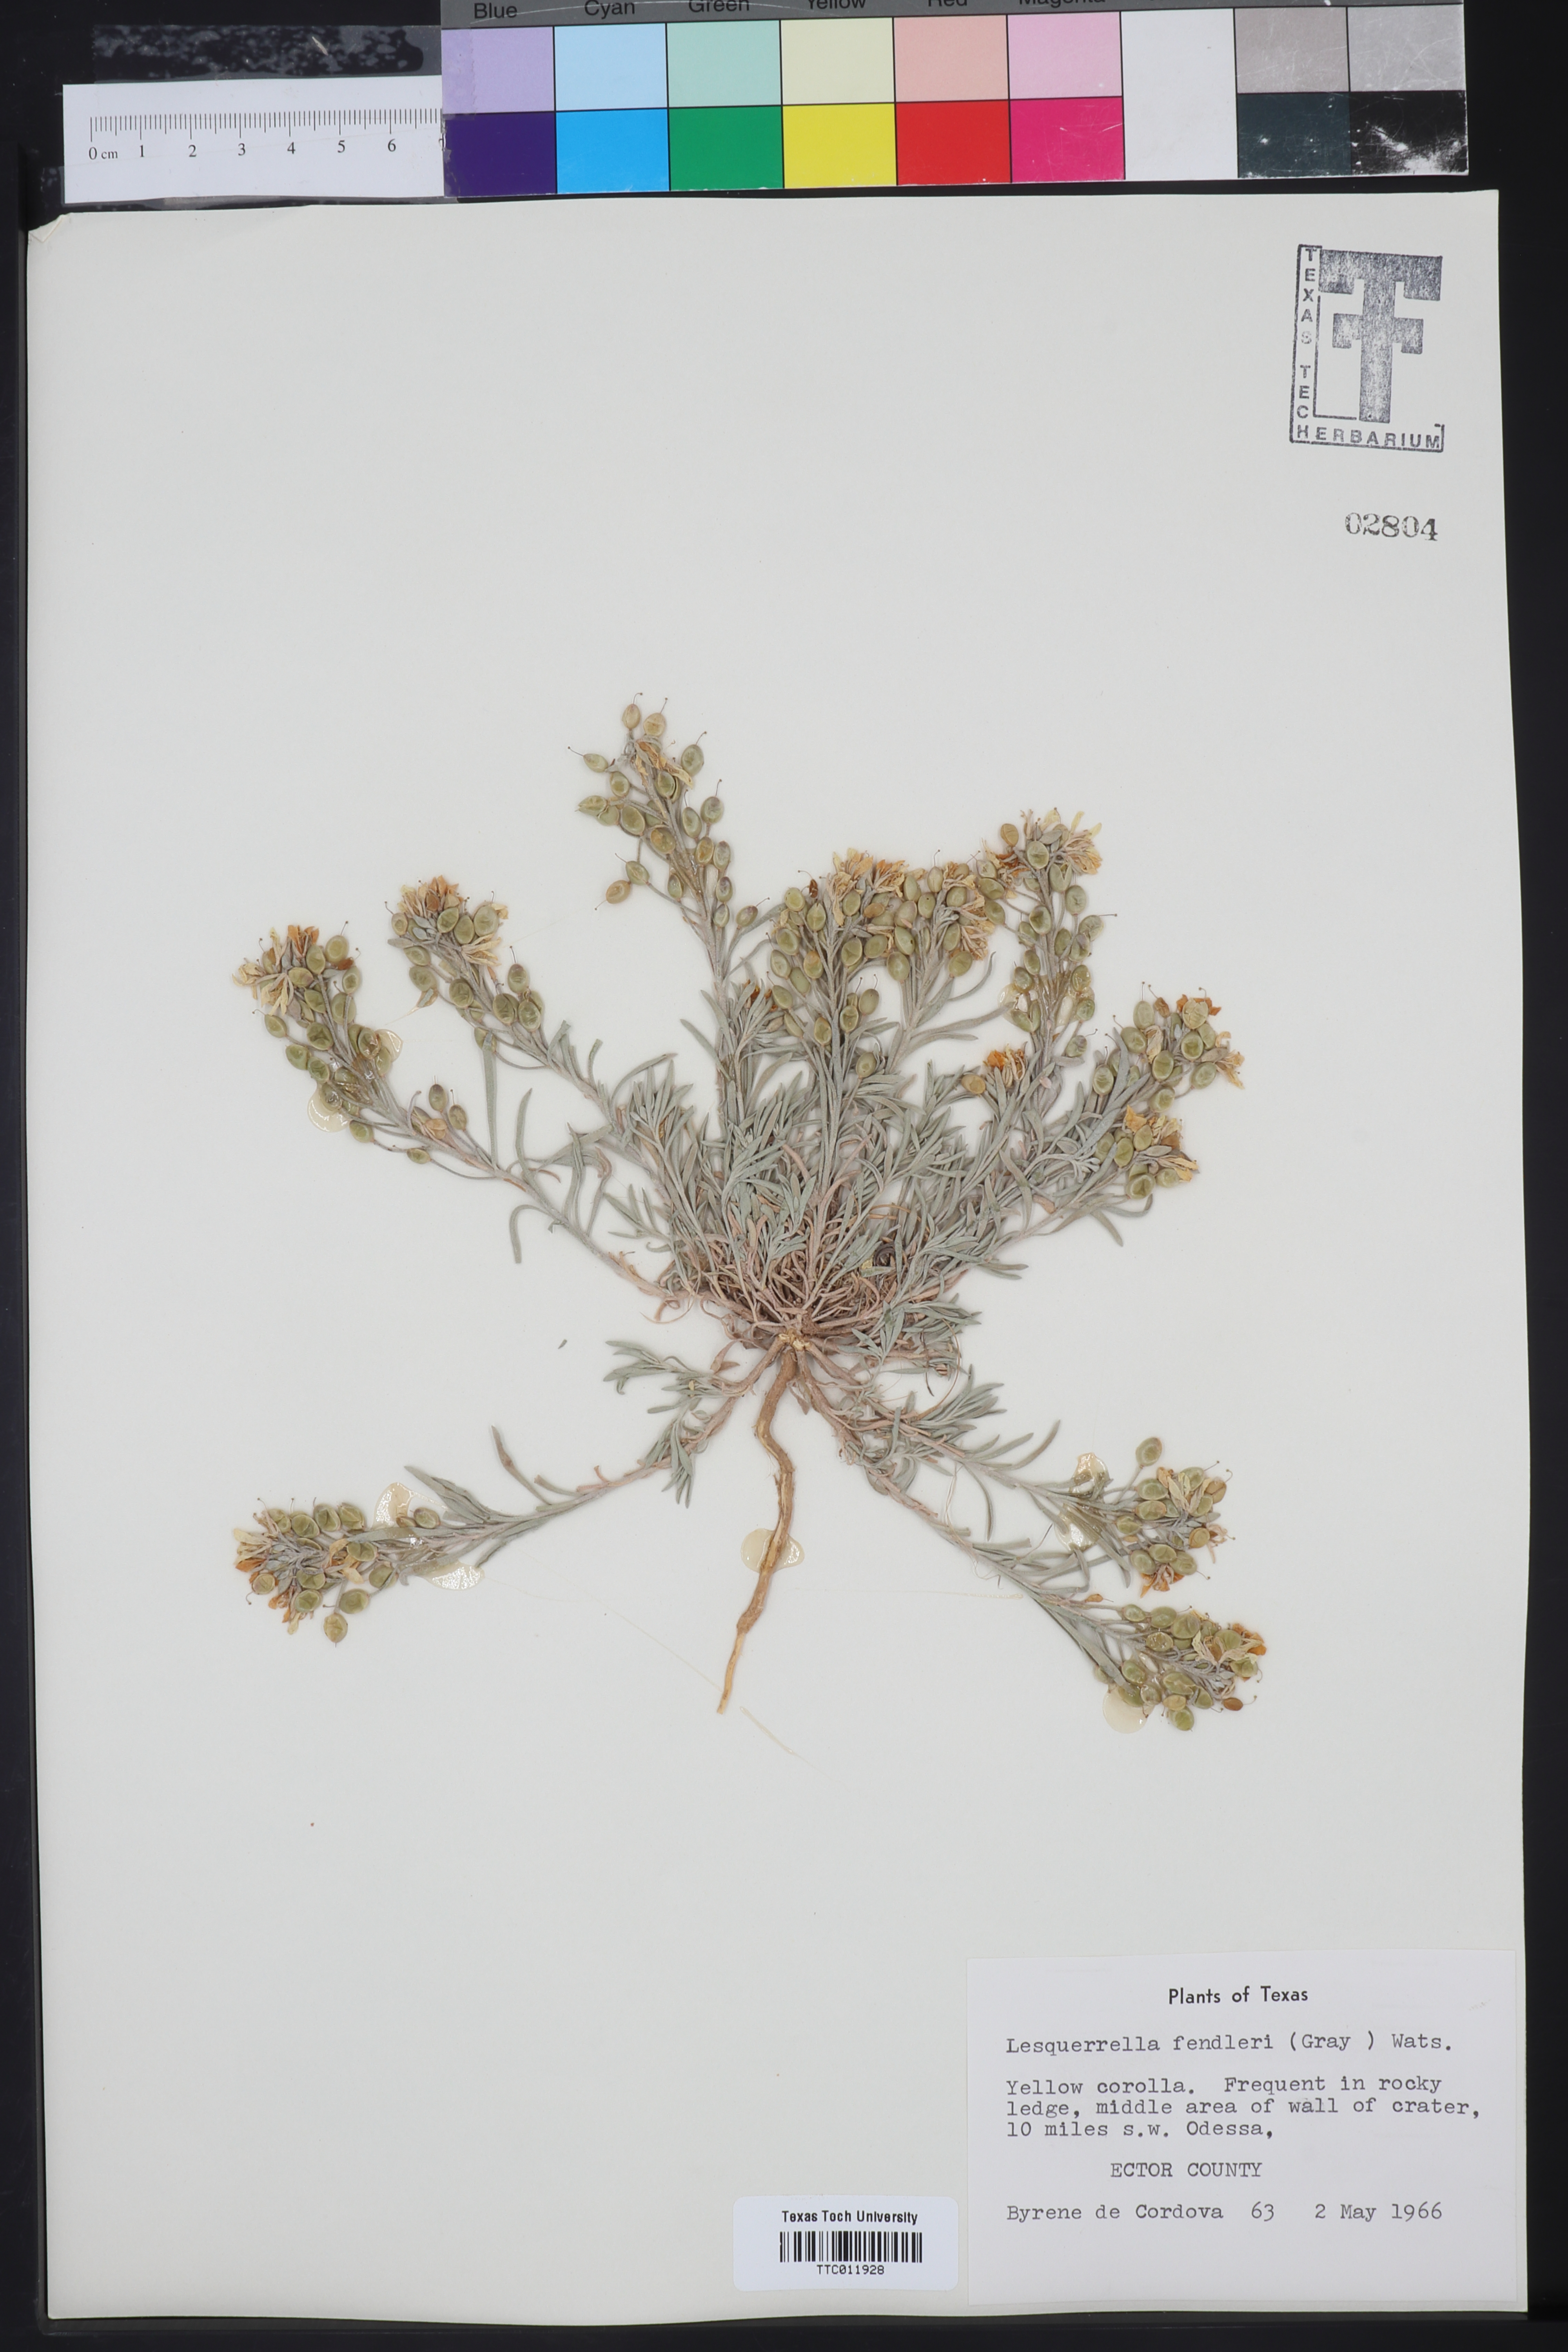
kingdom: Plantae
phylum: Tracheophyta
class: Magnoliopsida
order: Brassicales
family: Brassicaceae
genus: Physaria
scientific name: Physaria fendleri
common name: Fendler's bladderpod
